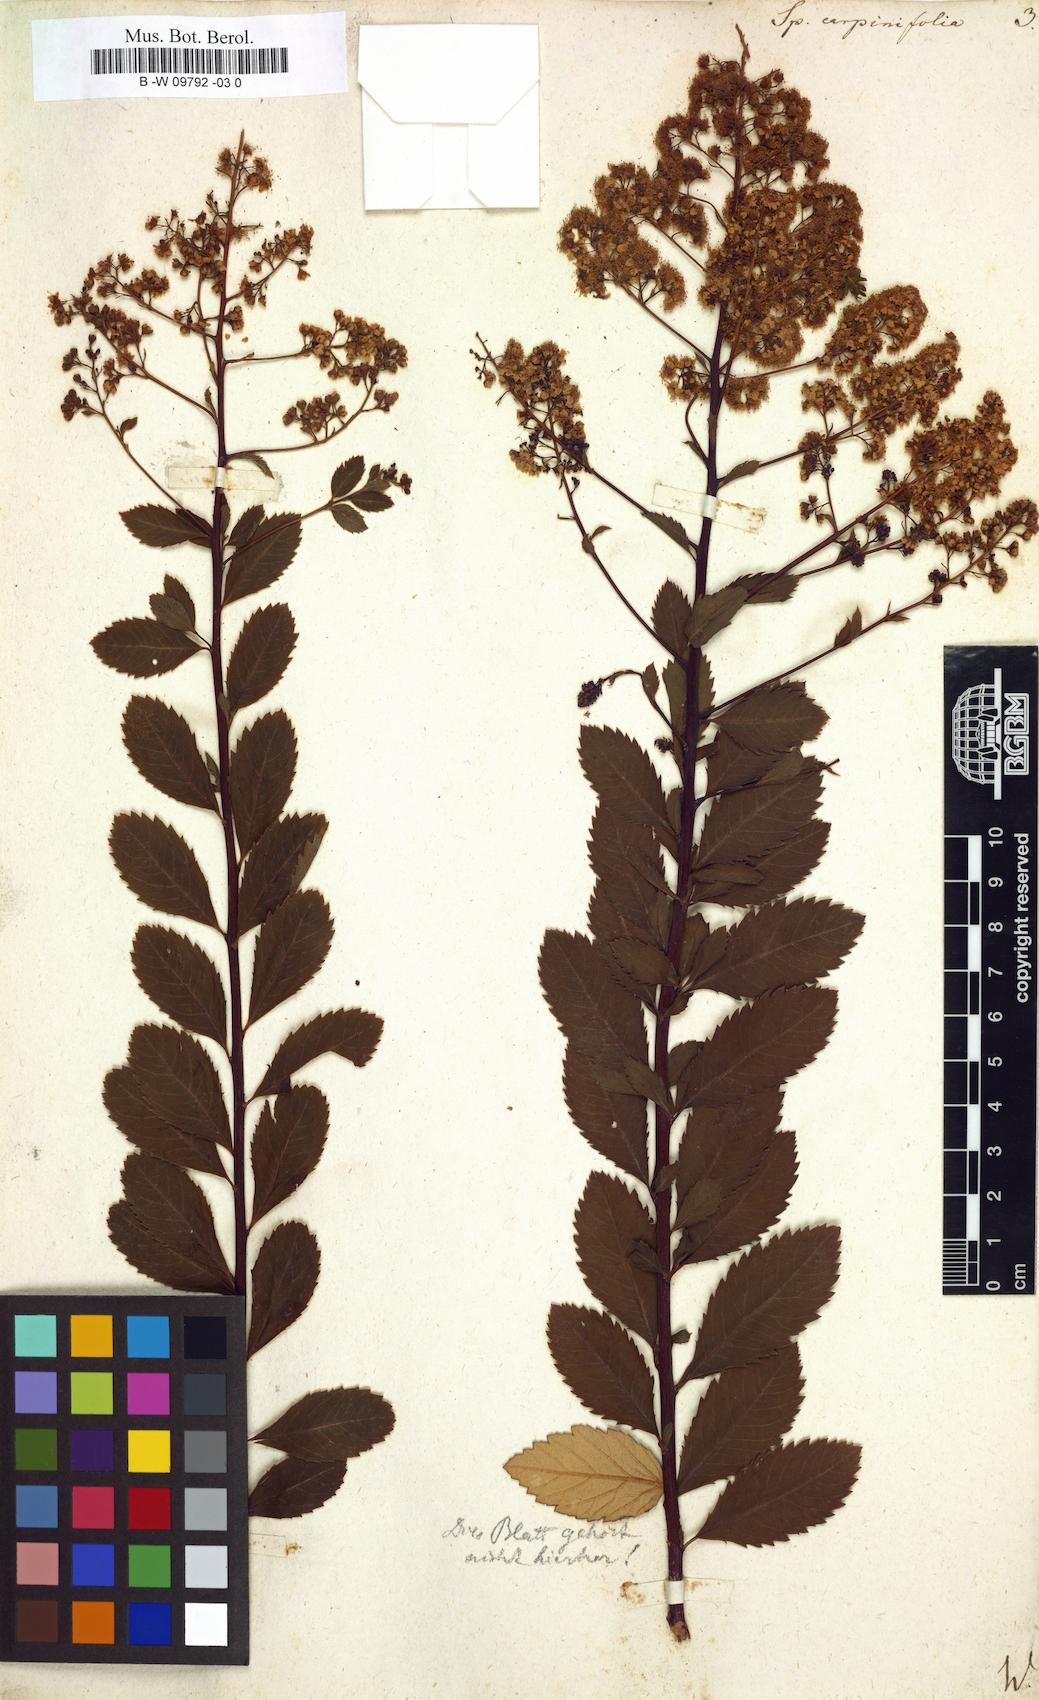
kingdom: Plantae
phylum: Tracheophyta
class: Magnoliopsida
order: Rosales
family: Rosaceae
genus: Spiraea
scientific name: Spiraea
